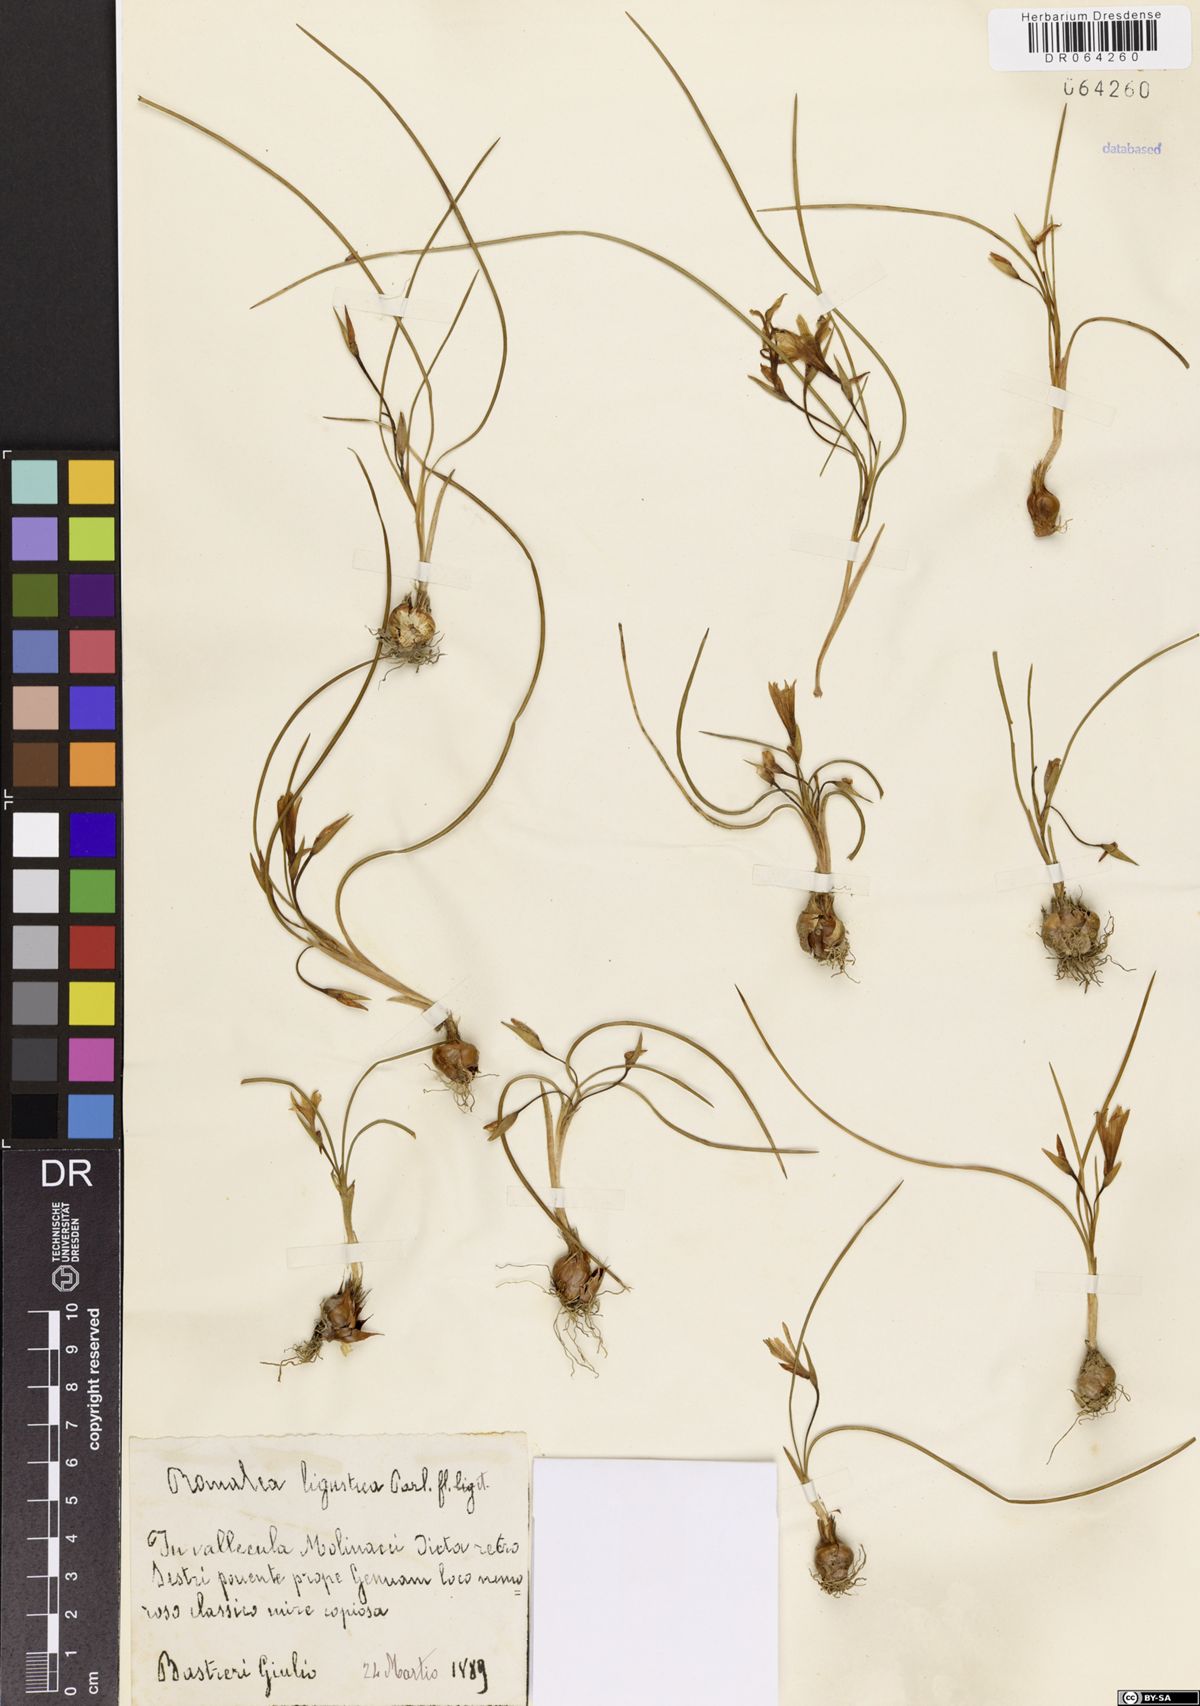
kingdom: Plantae
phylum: Tracheophyta
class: Liliopsida
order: Asparagales
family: Iridaceae
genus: Romulea
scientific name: Romulea ligustica
